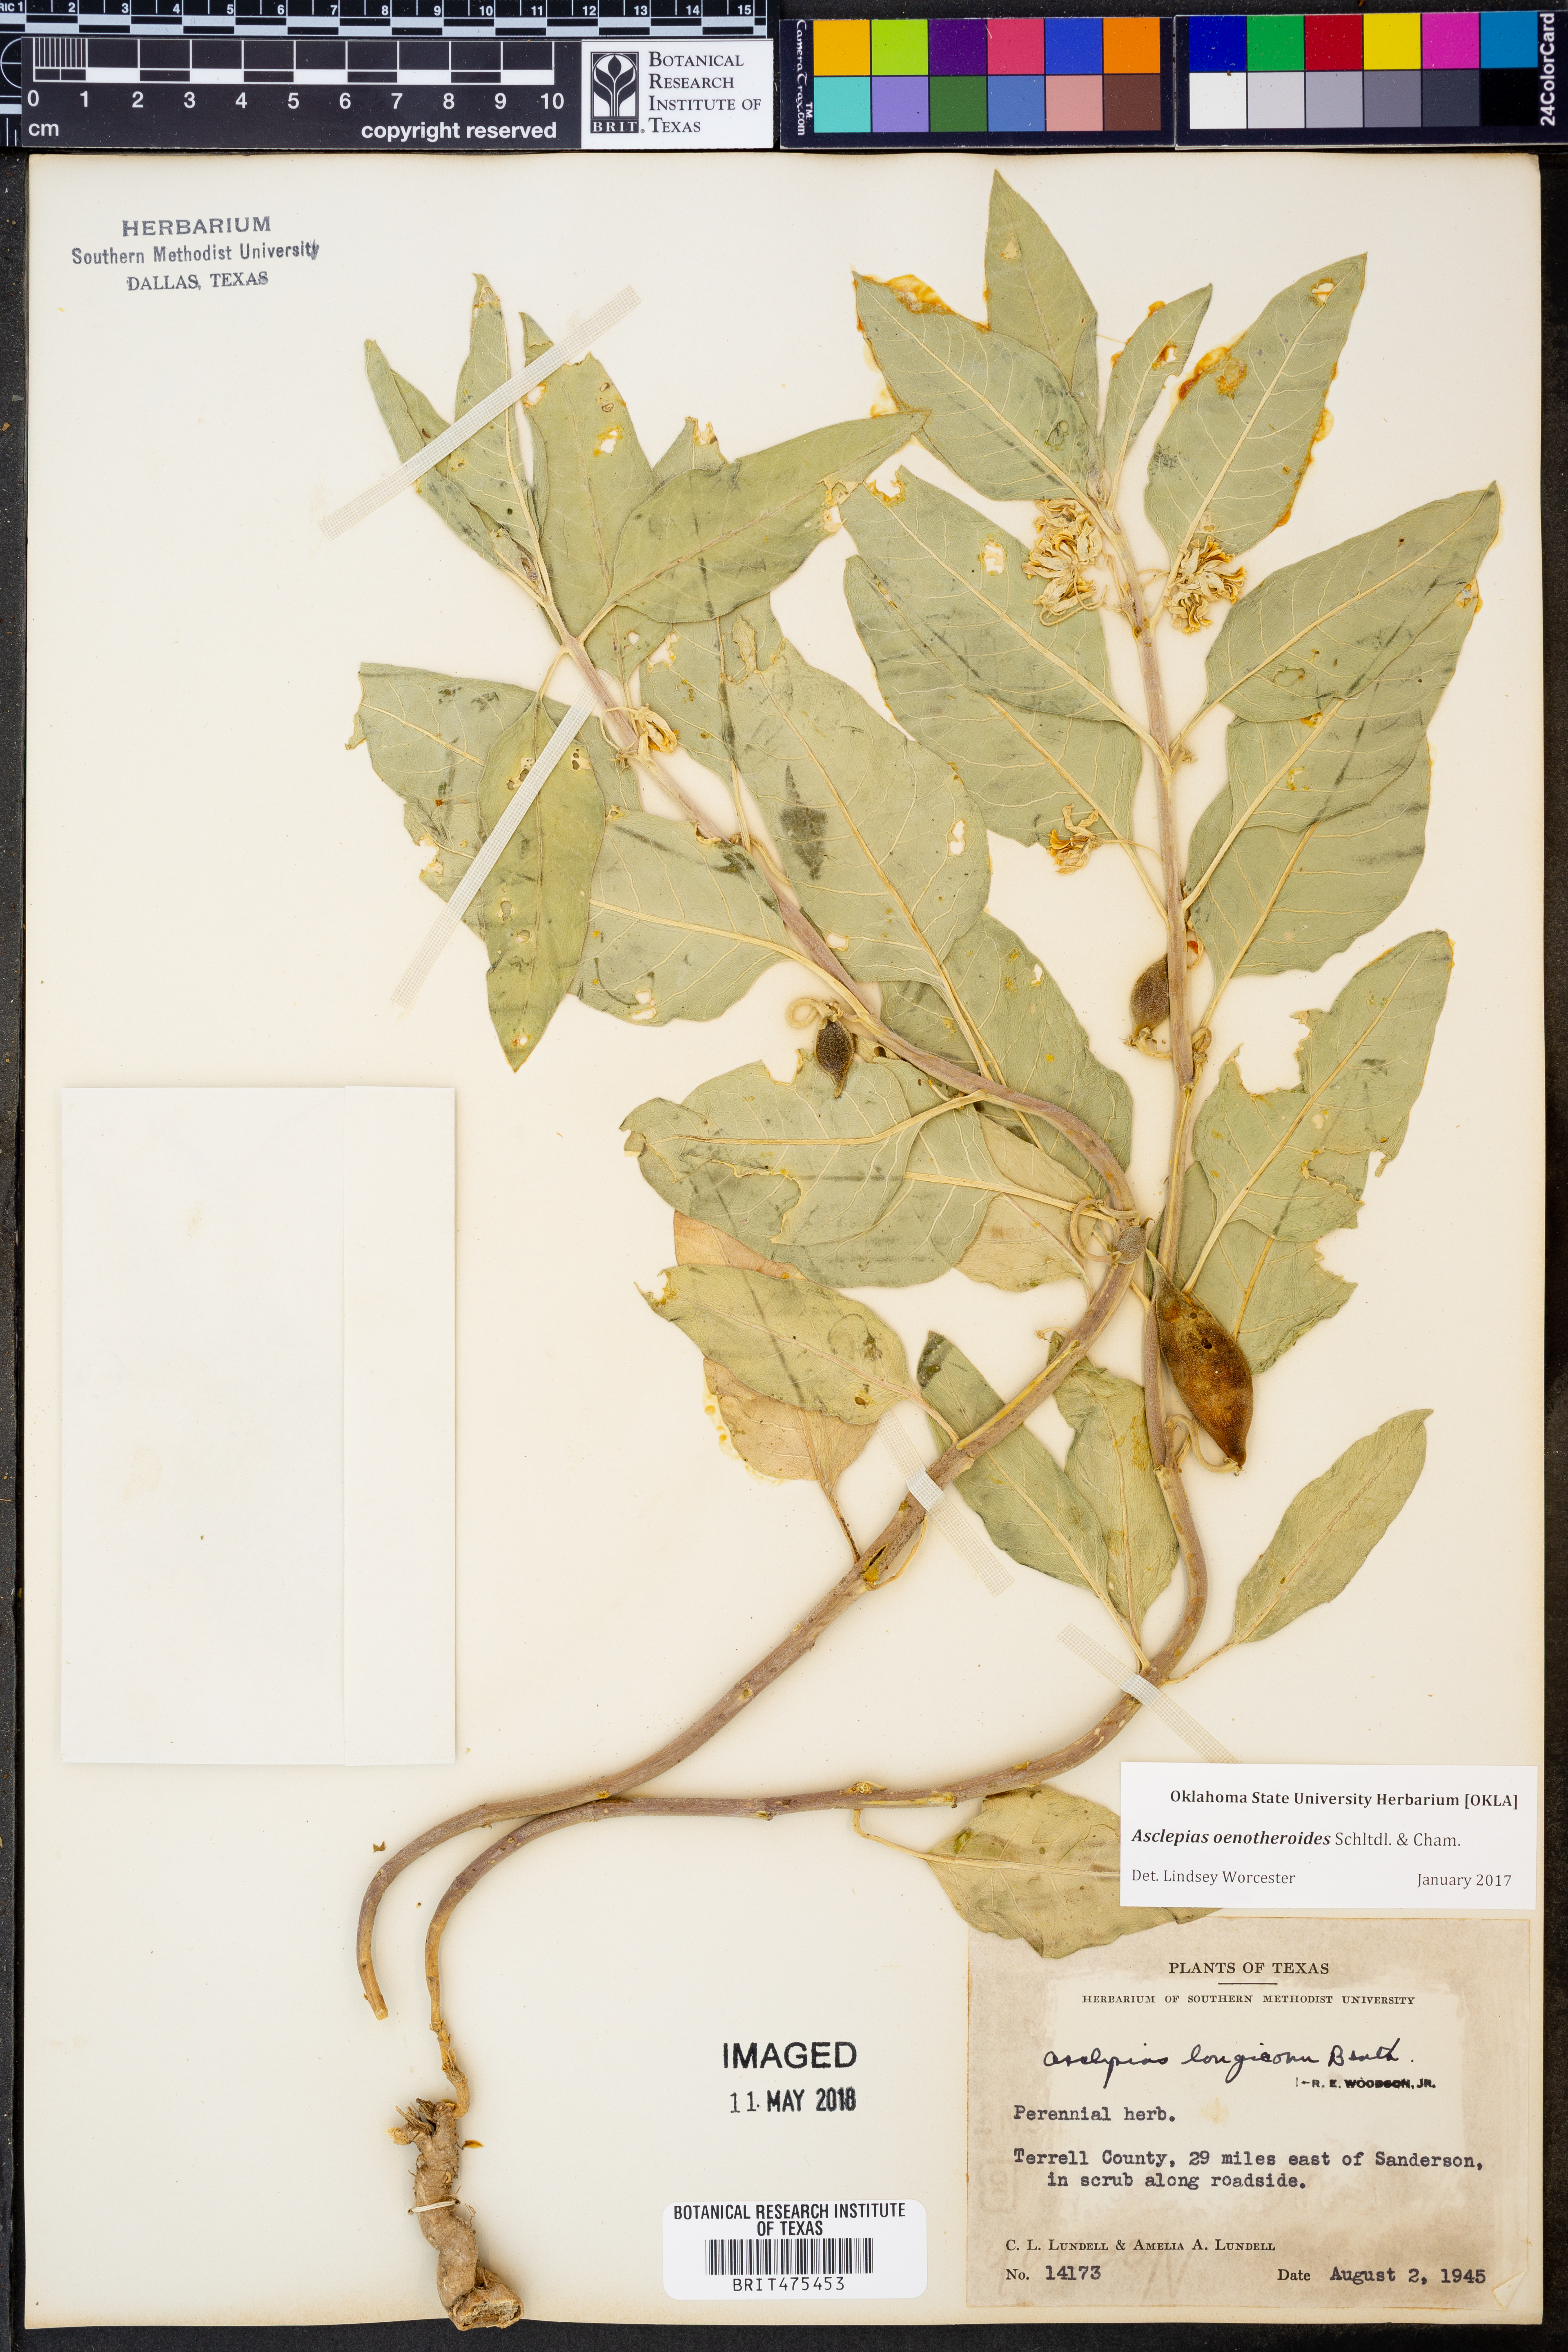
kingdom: Plantae
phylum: Tracheophyta
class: Magnoliopsida
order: Gentianales
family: Apocynaceae
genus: Asclepias
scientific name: Asclepias oenotheroides
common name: Zizotes milkweed
